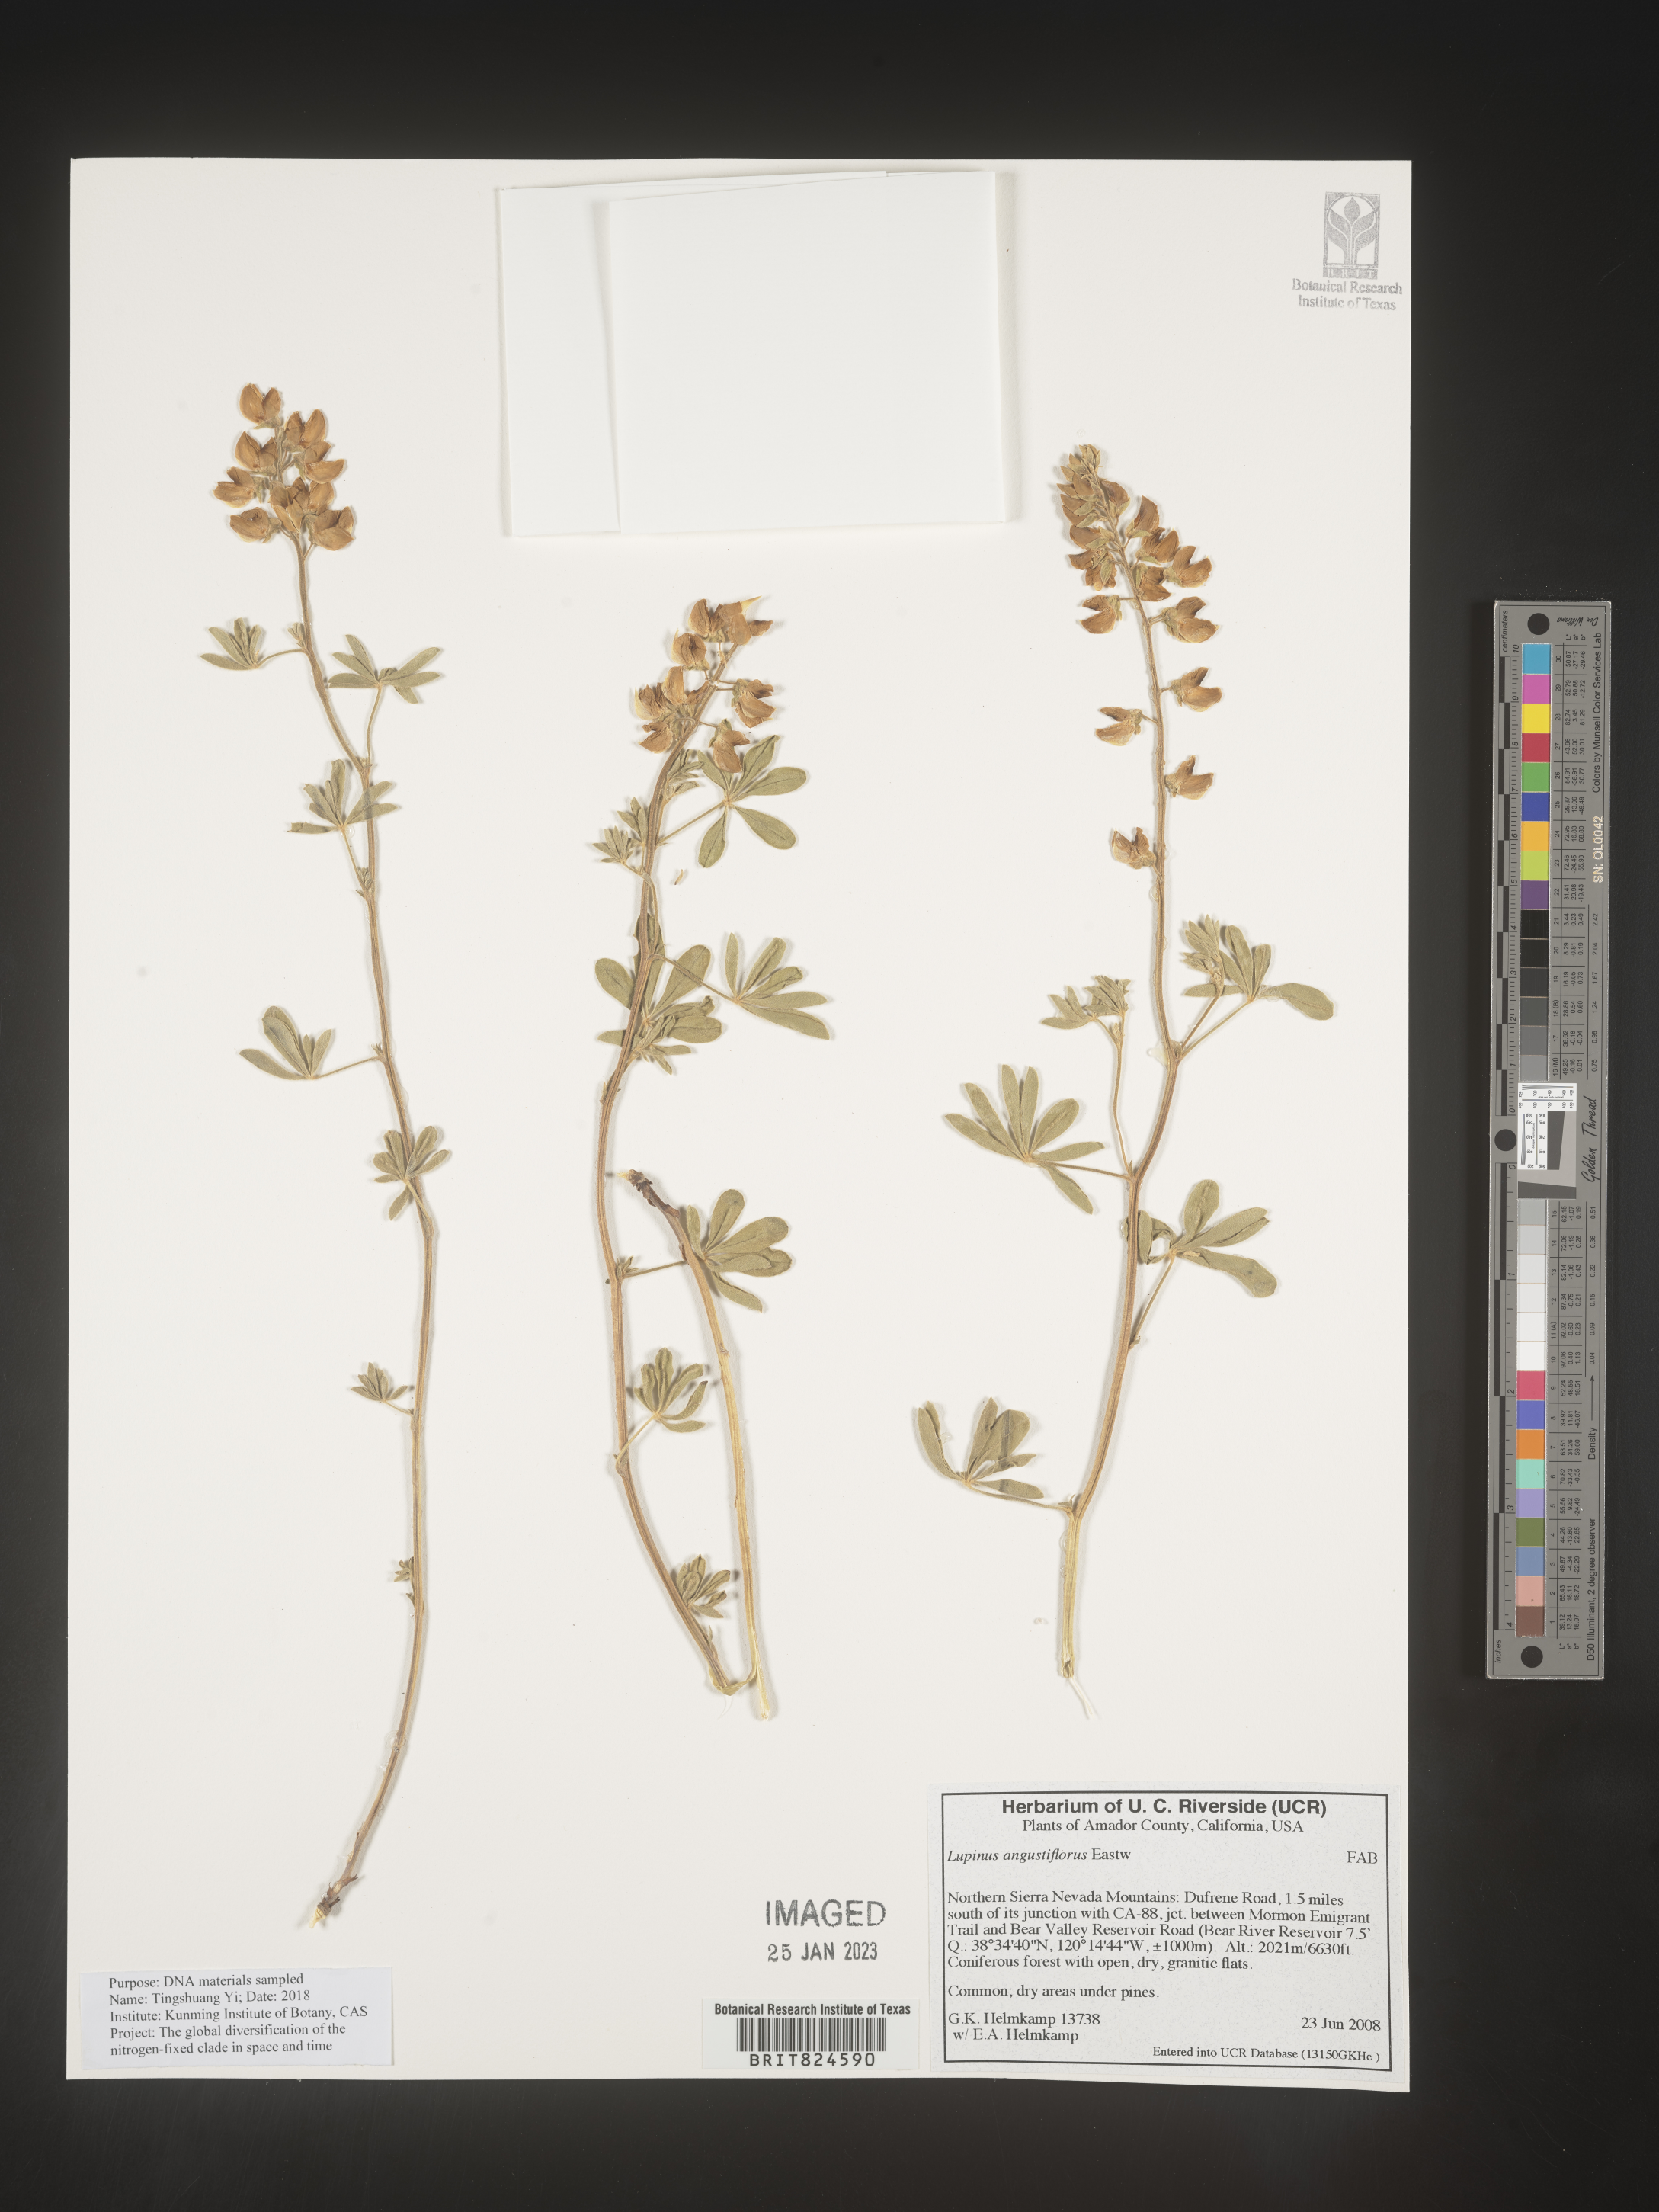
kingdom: Plantae
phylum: Tracheophyta
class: Magnoliopsida
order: Fabales
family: Fabaceae
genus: Lupinus
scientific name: Lupinus
